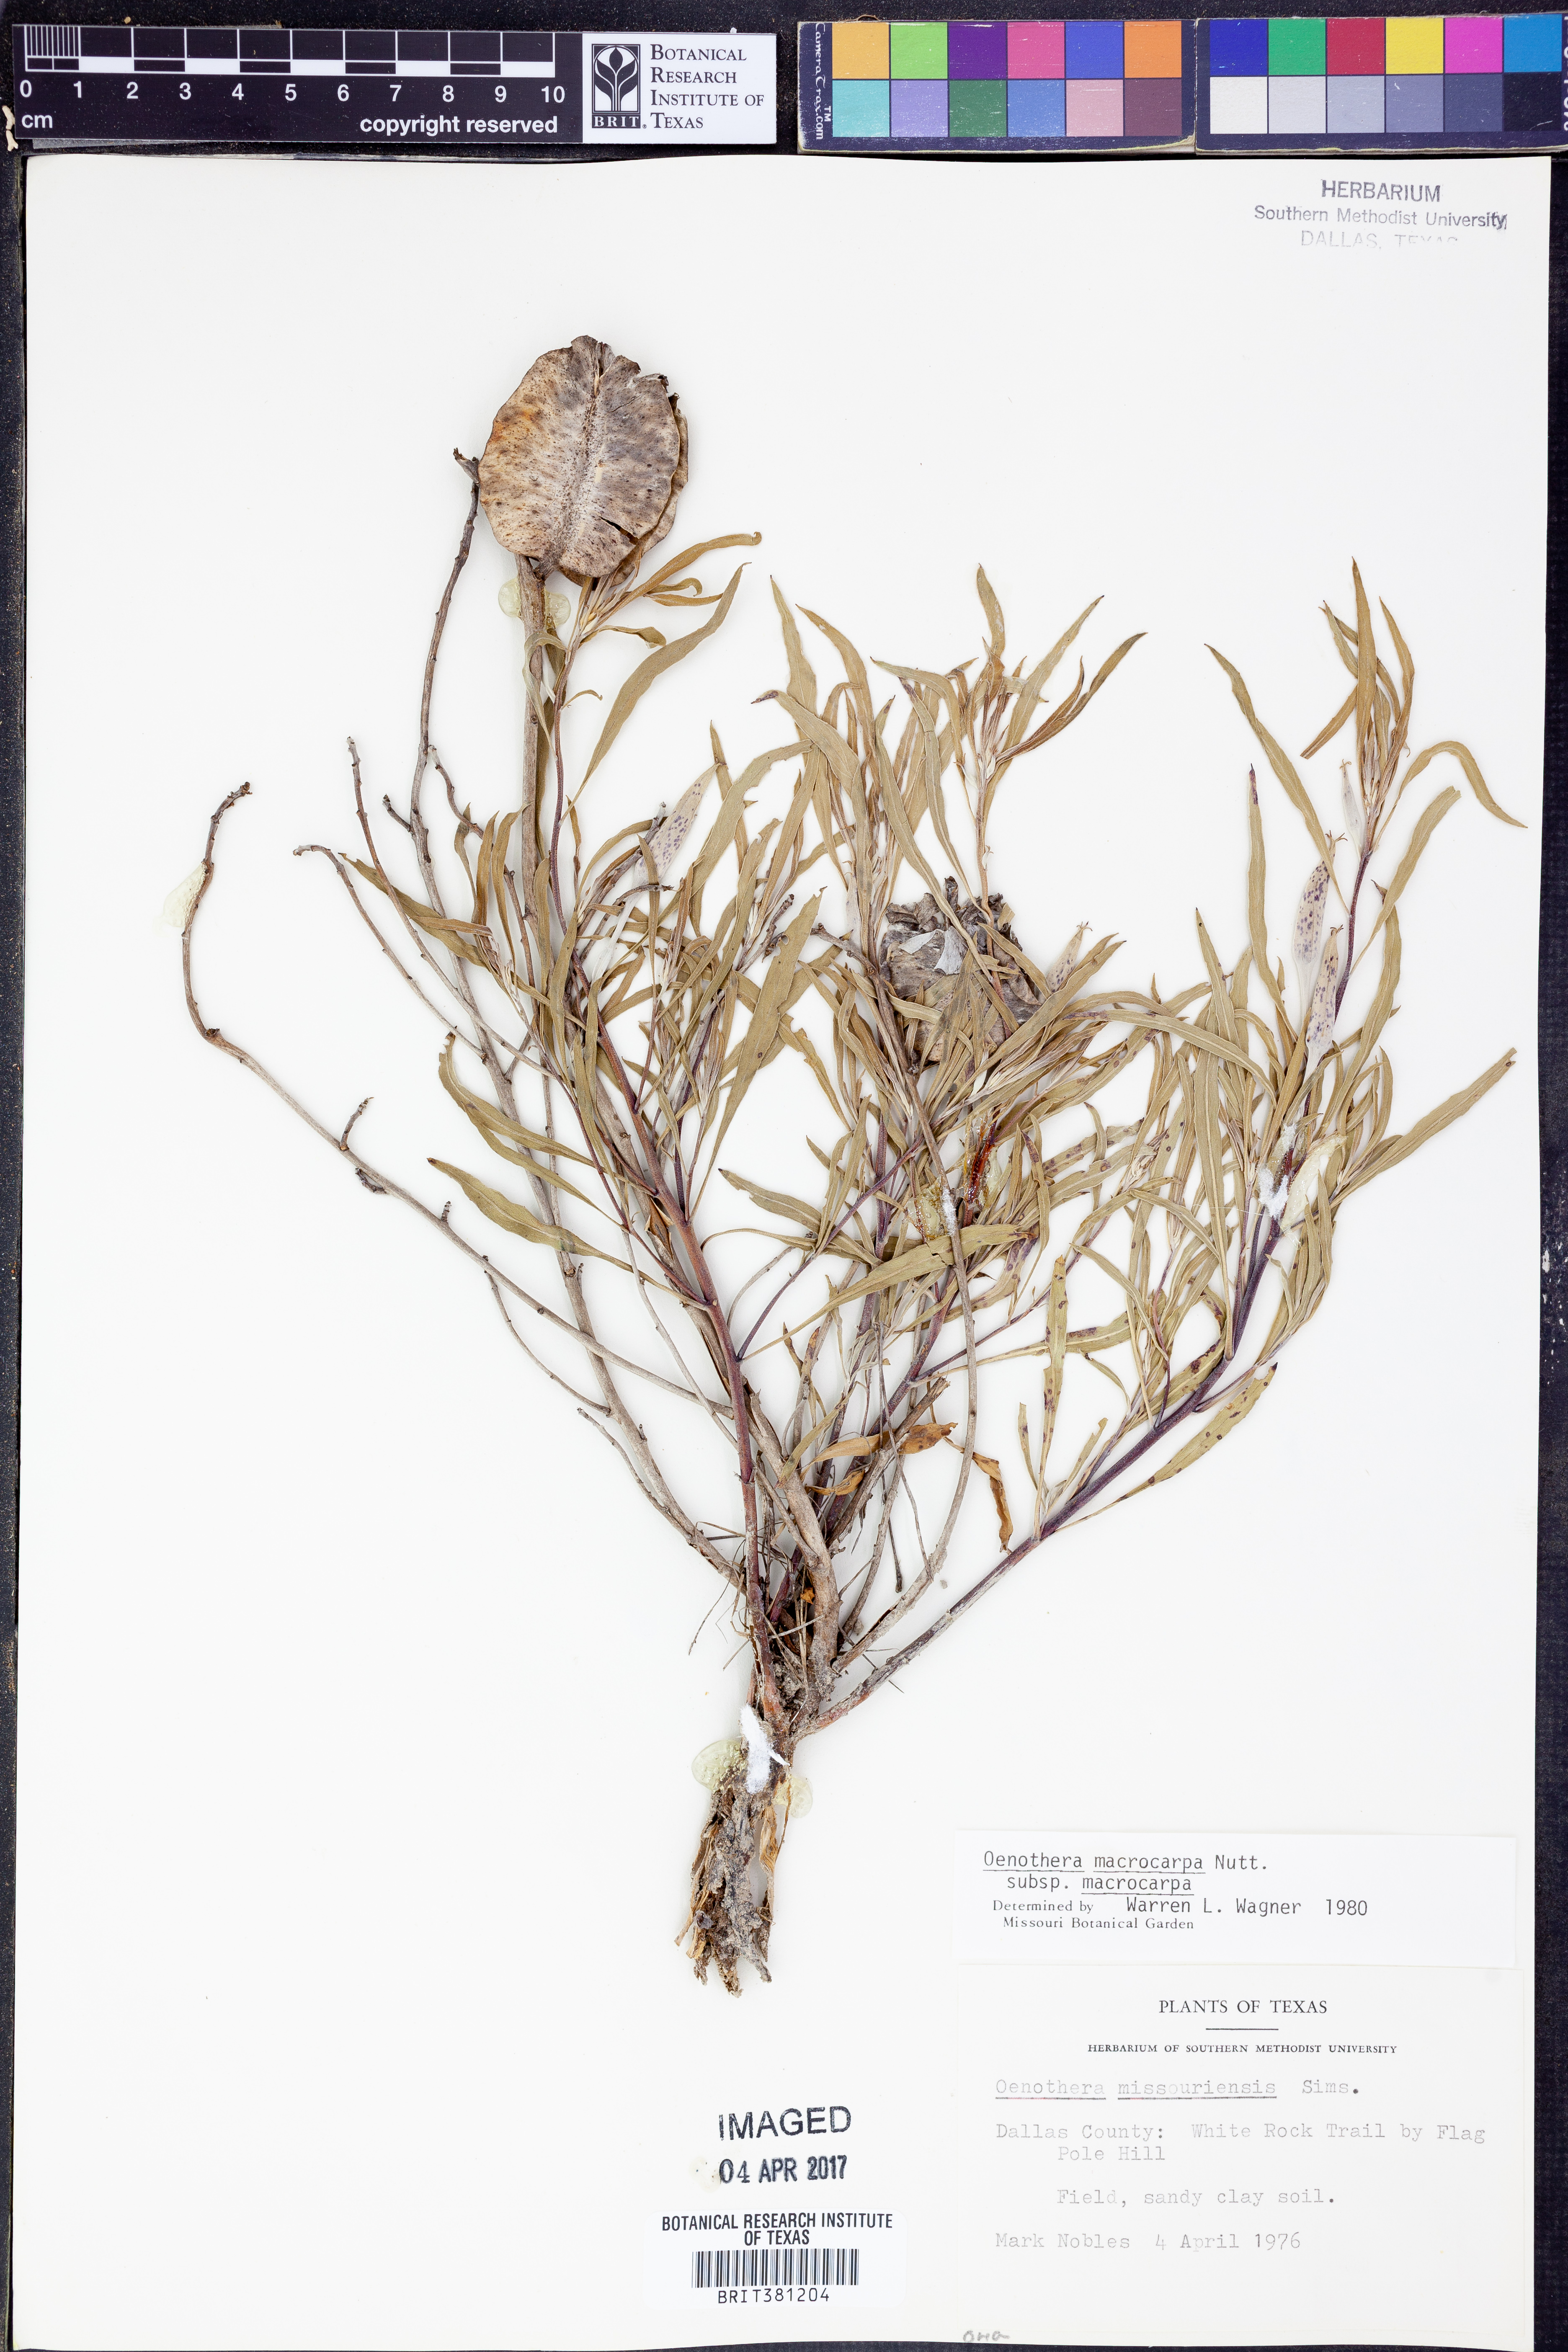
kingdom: Plantae
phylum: Tracheophyta
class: Magnoliopsida
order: Myrtales
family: Onagraceae
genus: Oenothera
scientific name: Oenothera macrocarpa
